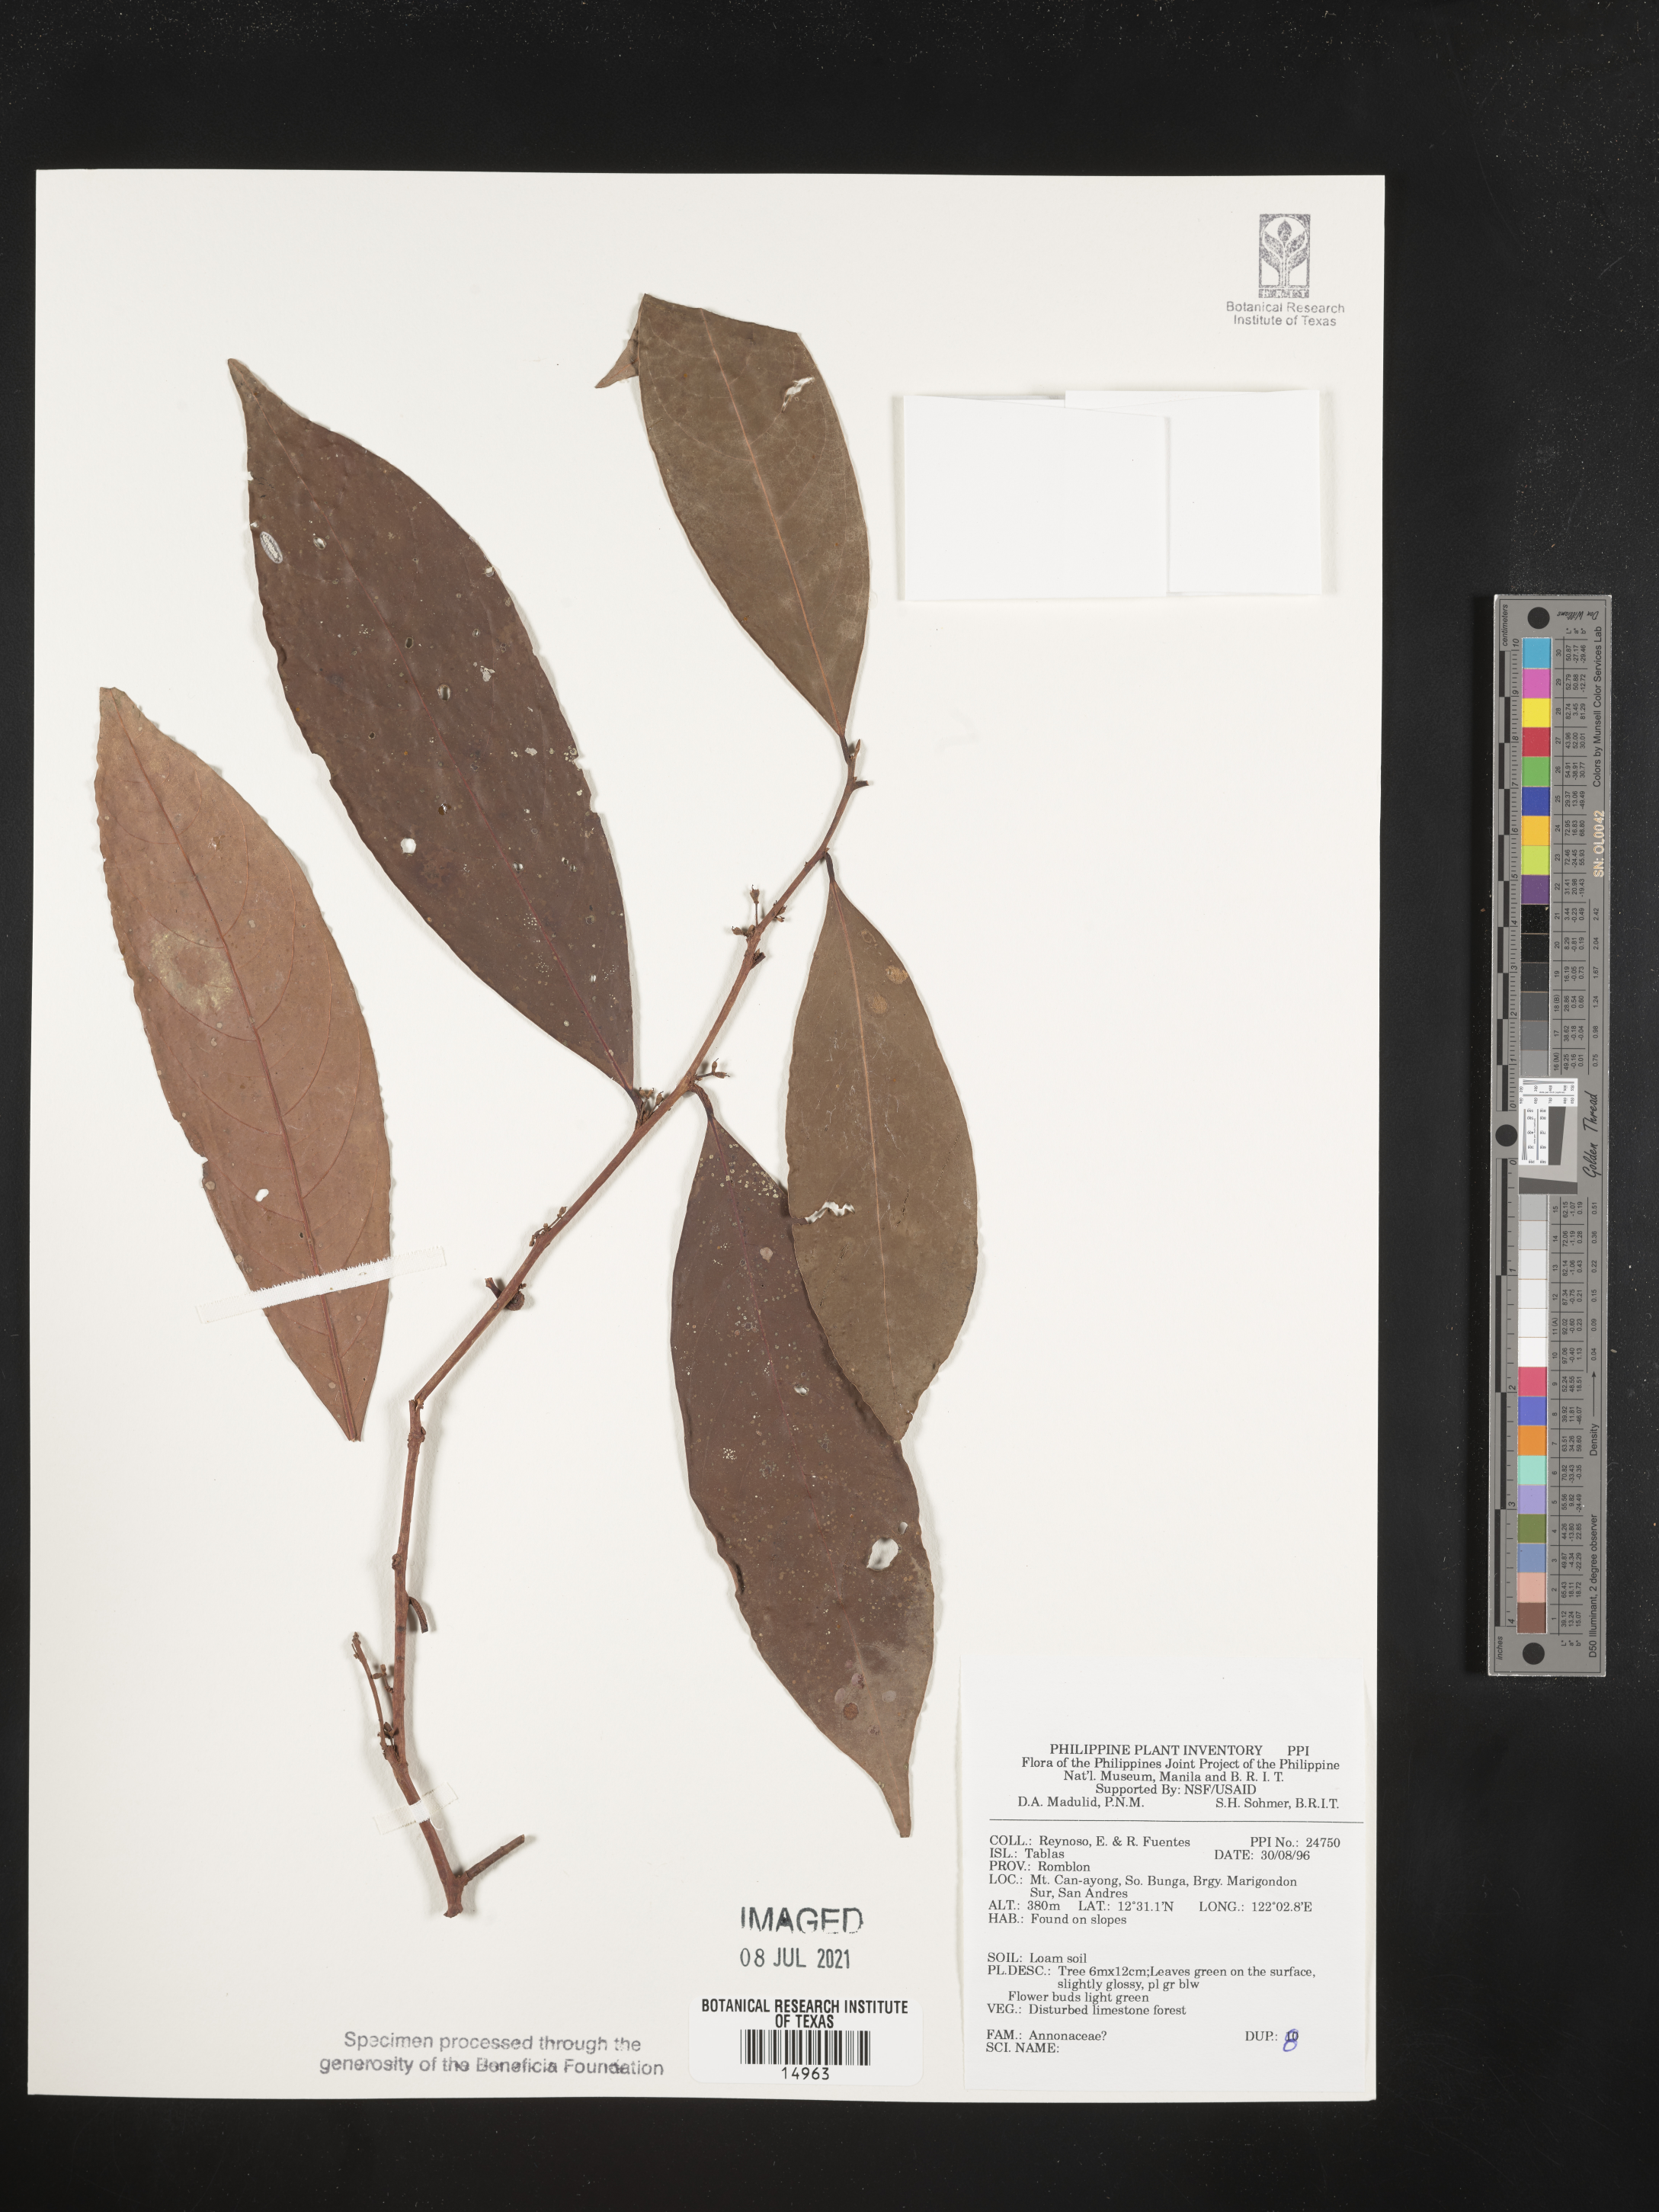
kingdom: Plantae
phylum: Tracheophyta
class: Magnoliopsida
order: Magnoliales
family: Annonaceae
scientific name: Annonaceae
